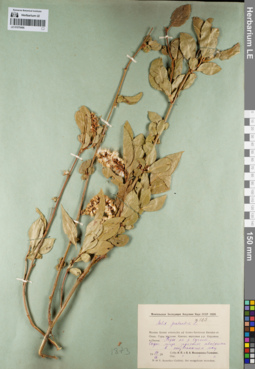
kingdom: Plantae
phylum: Tracheophyta
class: Magnoliopsida
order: Malpighiales
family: Salicaceae
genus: Salix
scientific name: Salix pseudopentandra
